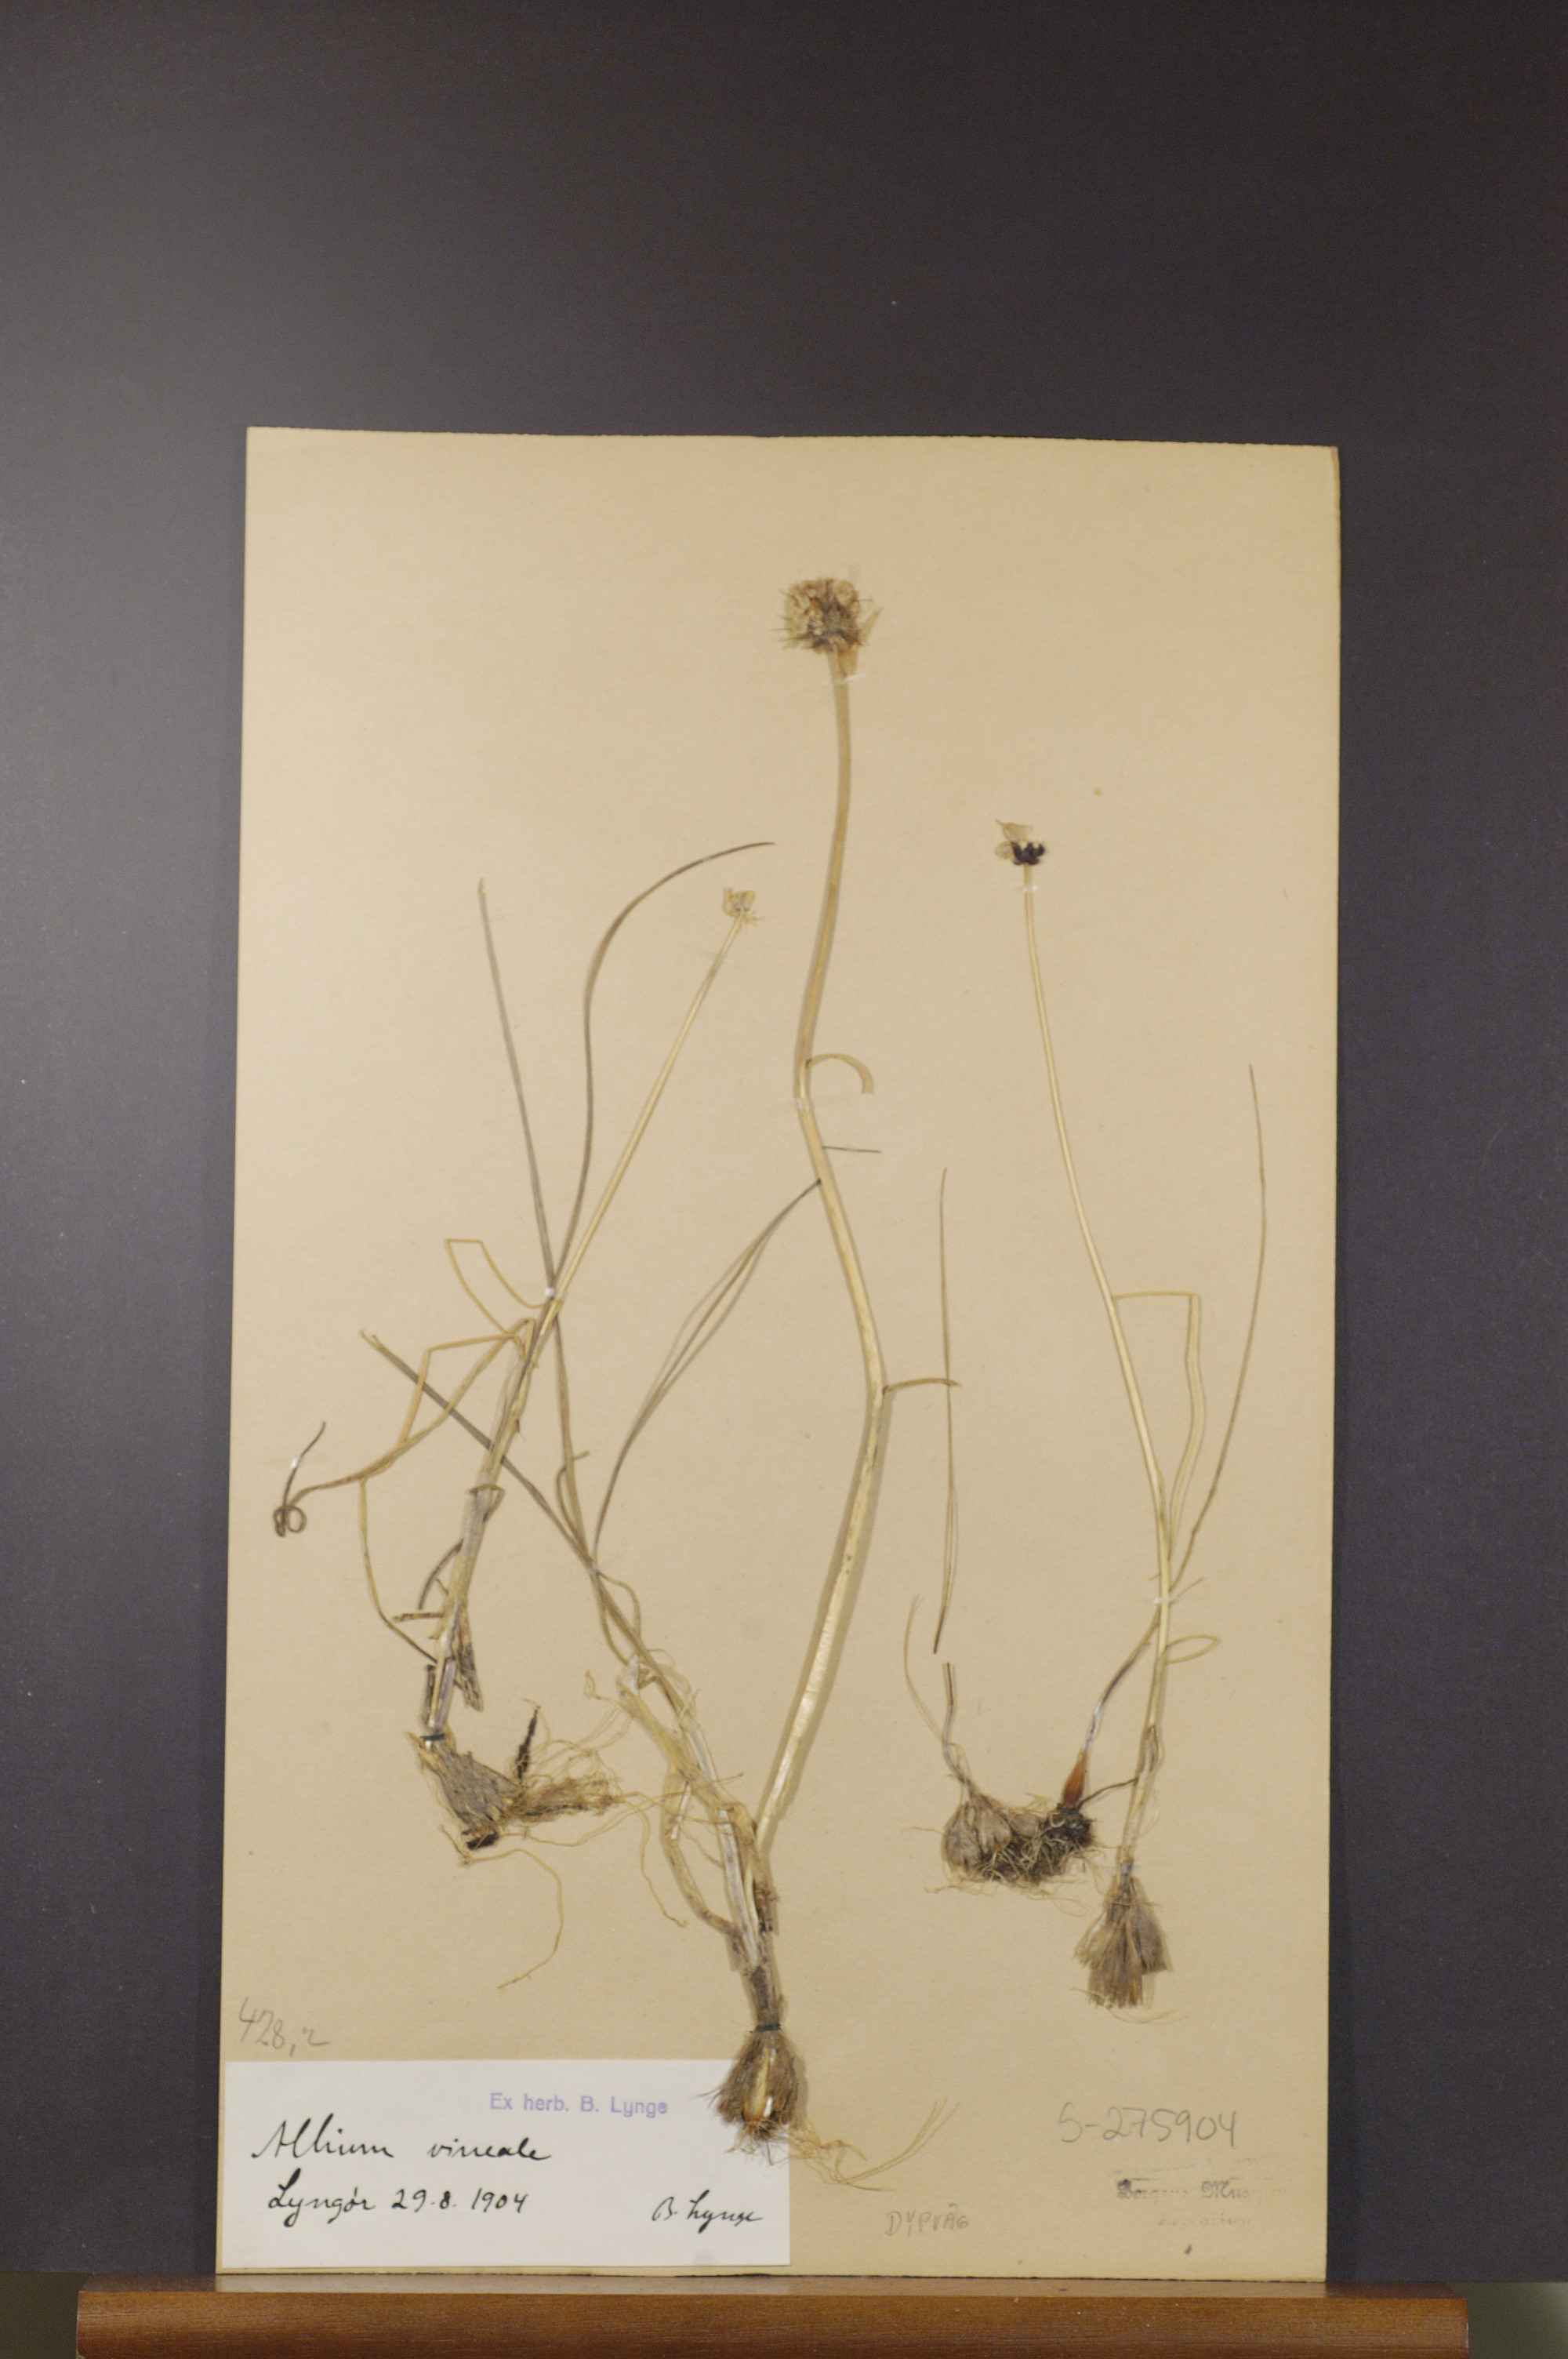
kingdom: Plantae
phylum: Tracheophyta
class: Liliopsida
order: Asparagales
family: Amaryllidaceae
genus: Allium
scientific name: Allium vineale
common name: Crow garlic
